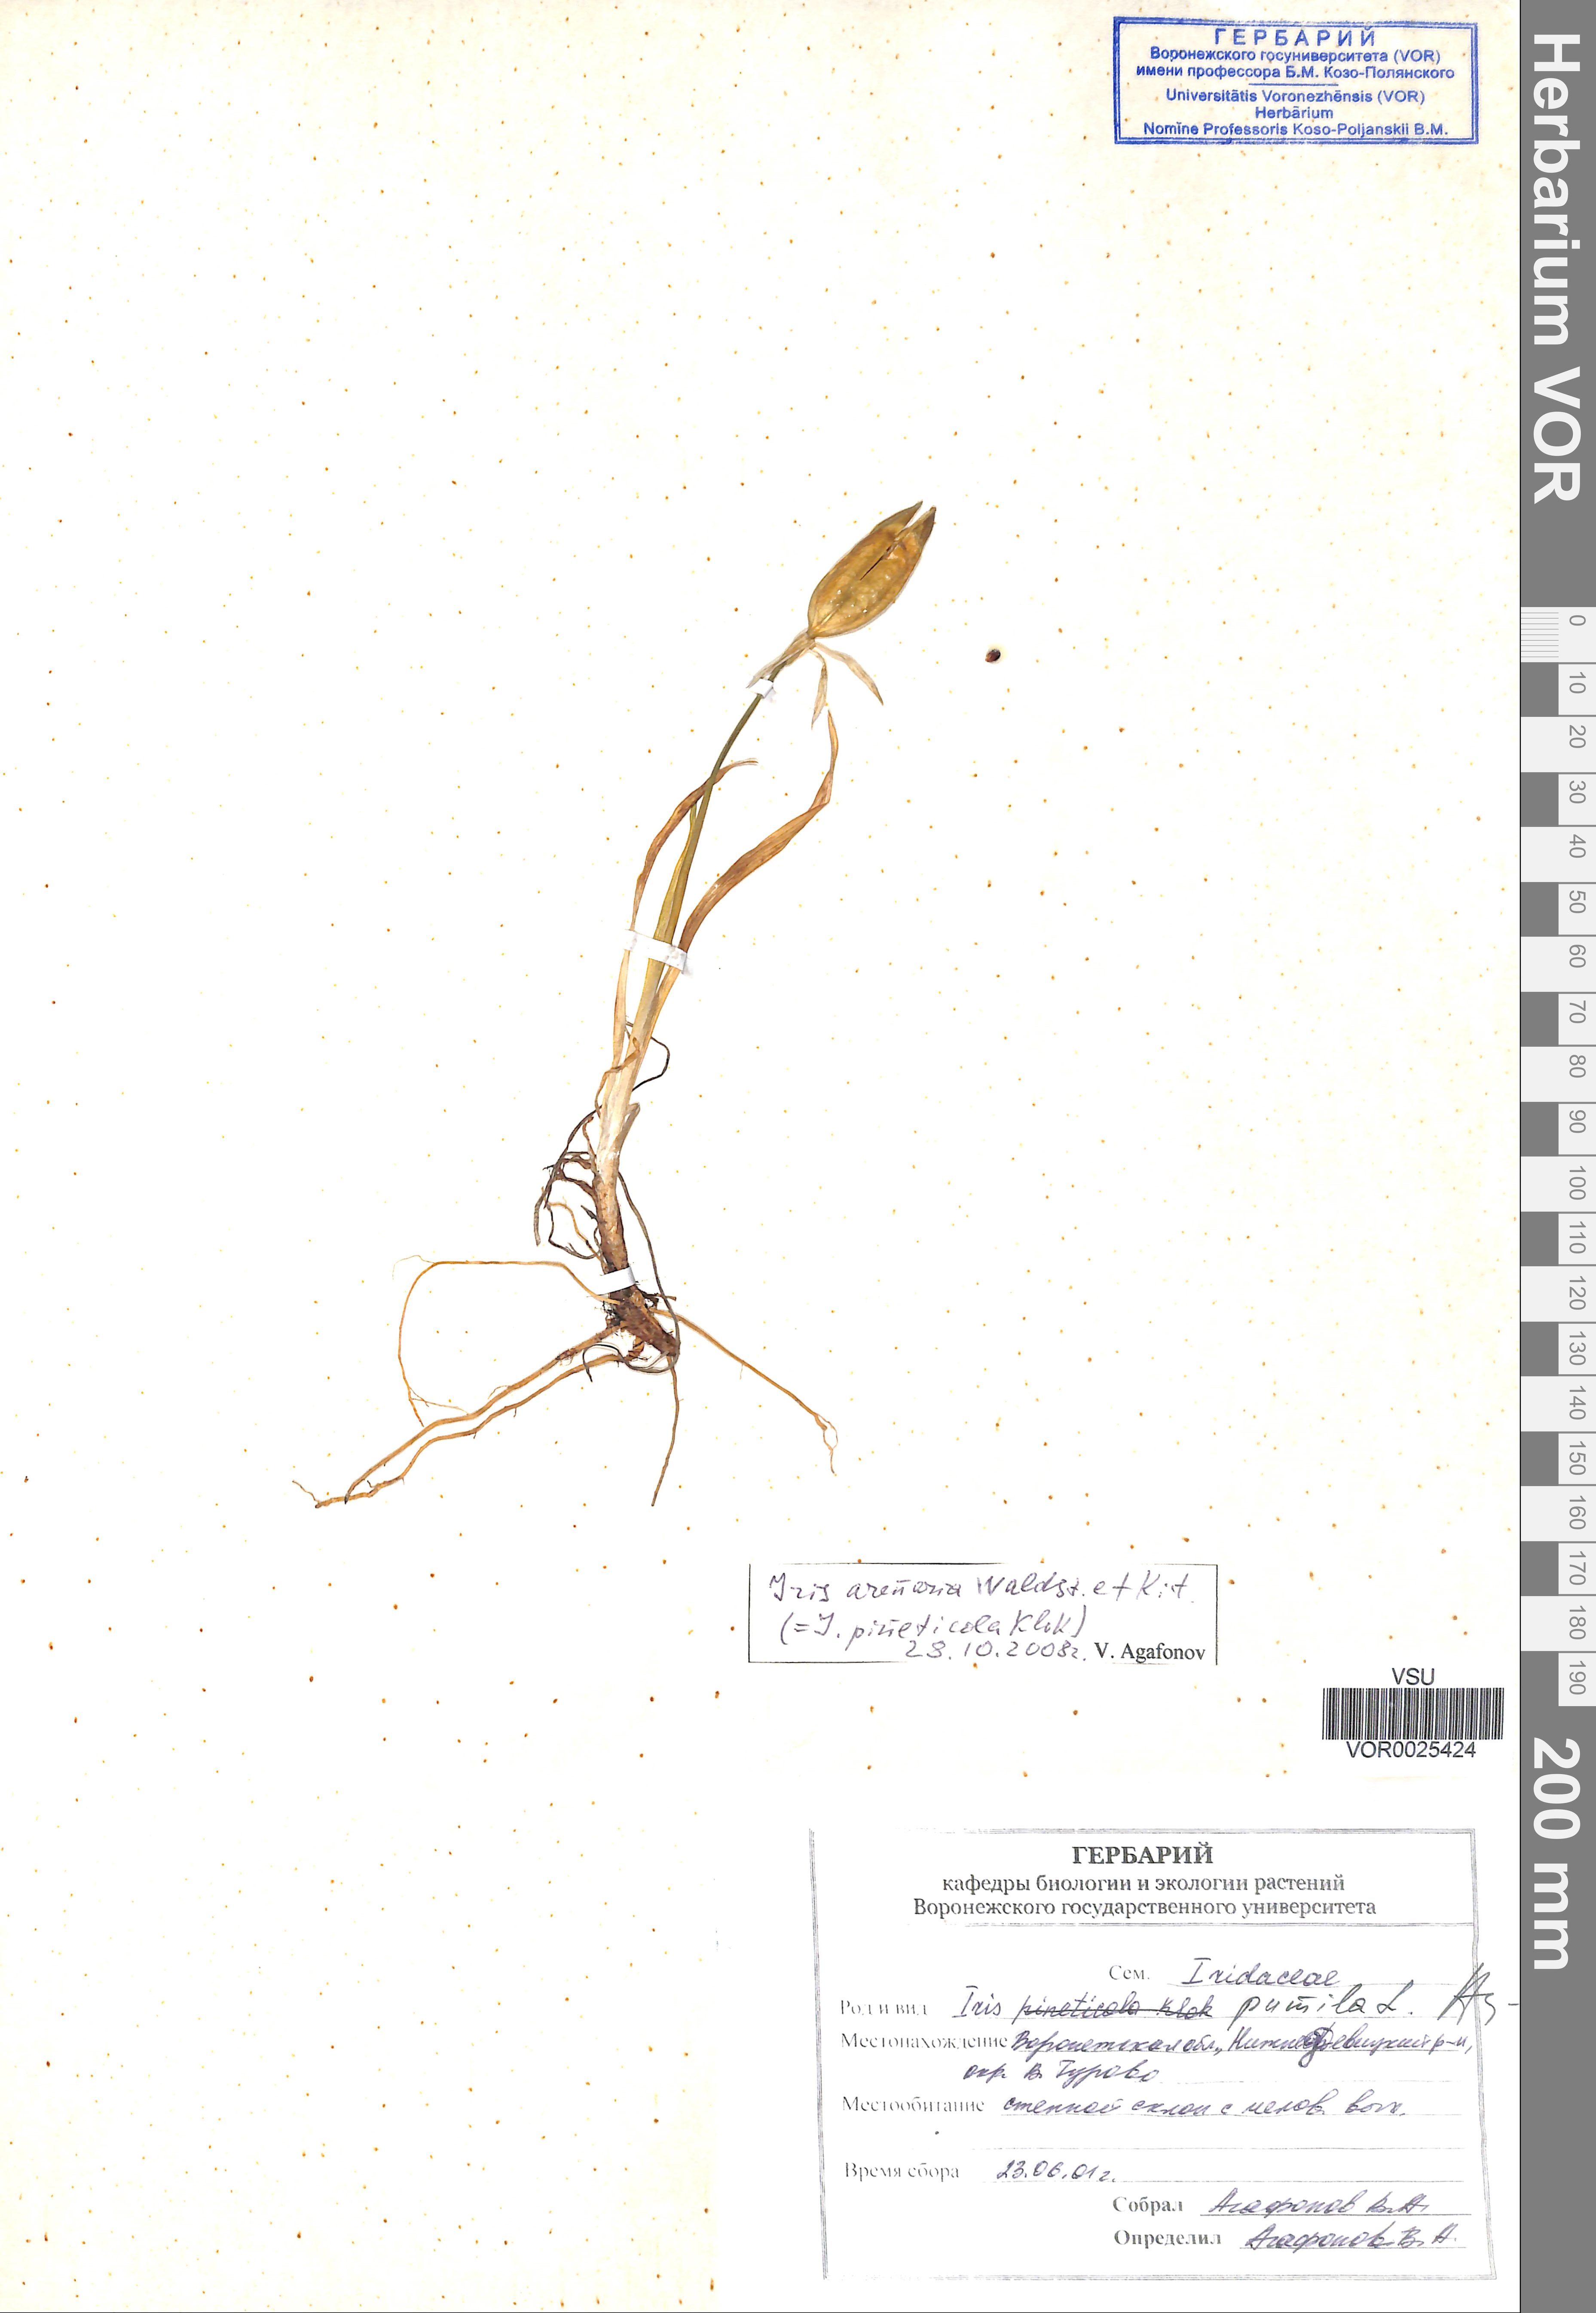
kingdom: Plantae
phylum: Tracheophyta
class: Liliopsida
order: Asparagales
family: Iridaceae
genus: Iris
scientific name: Iris arenaria
